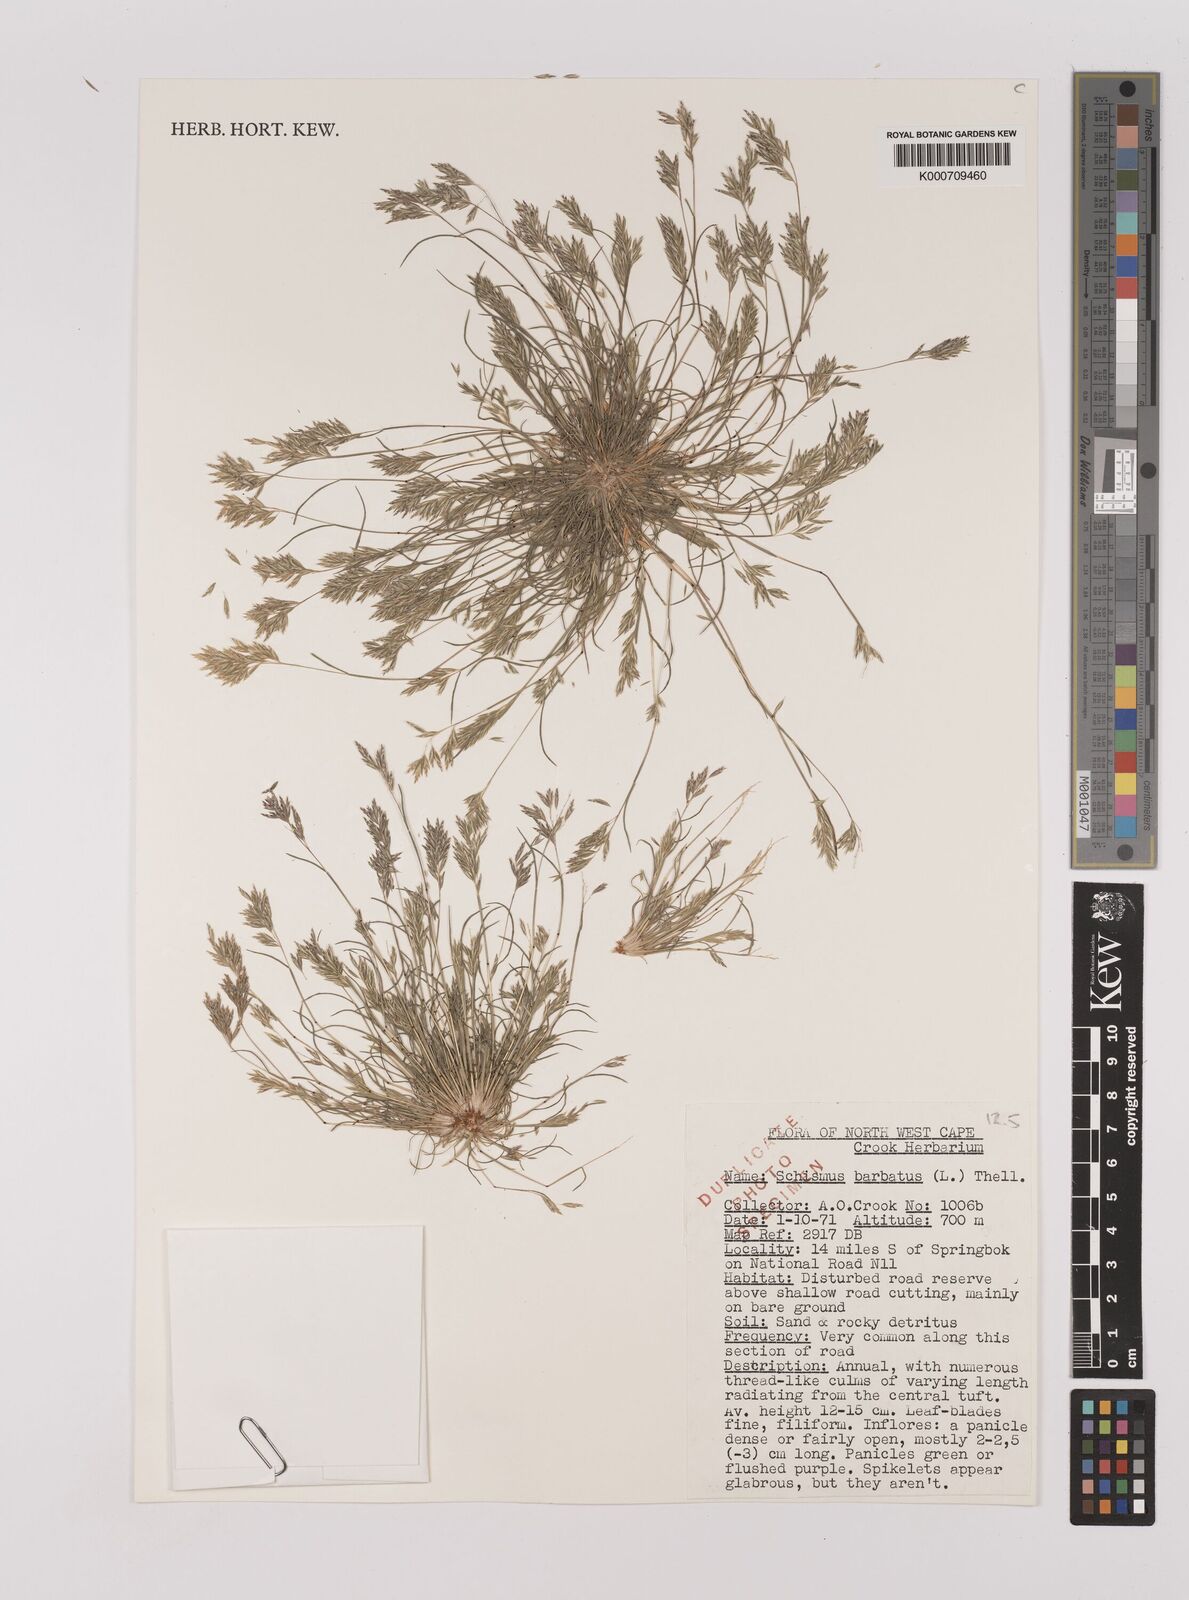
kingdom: Plantae
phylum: Tracheophyta
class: Liliopsida
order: Poales
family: Poaceae
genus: Schismus
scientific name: Schismus barbatus
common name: Kelch-grass
